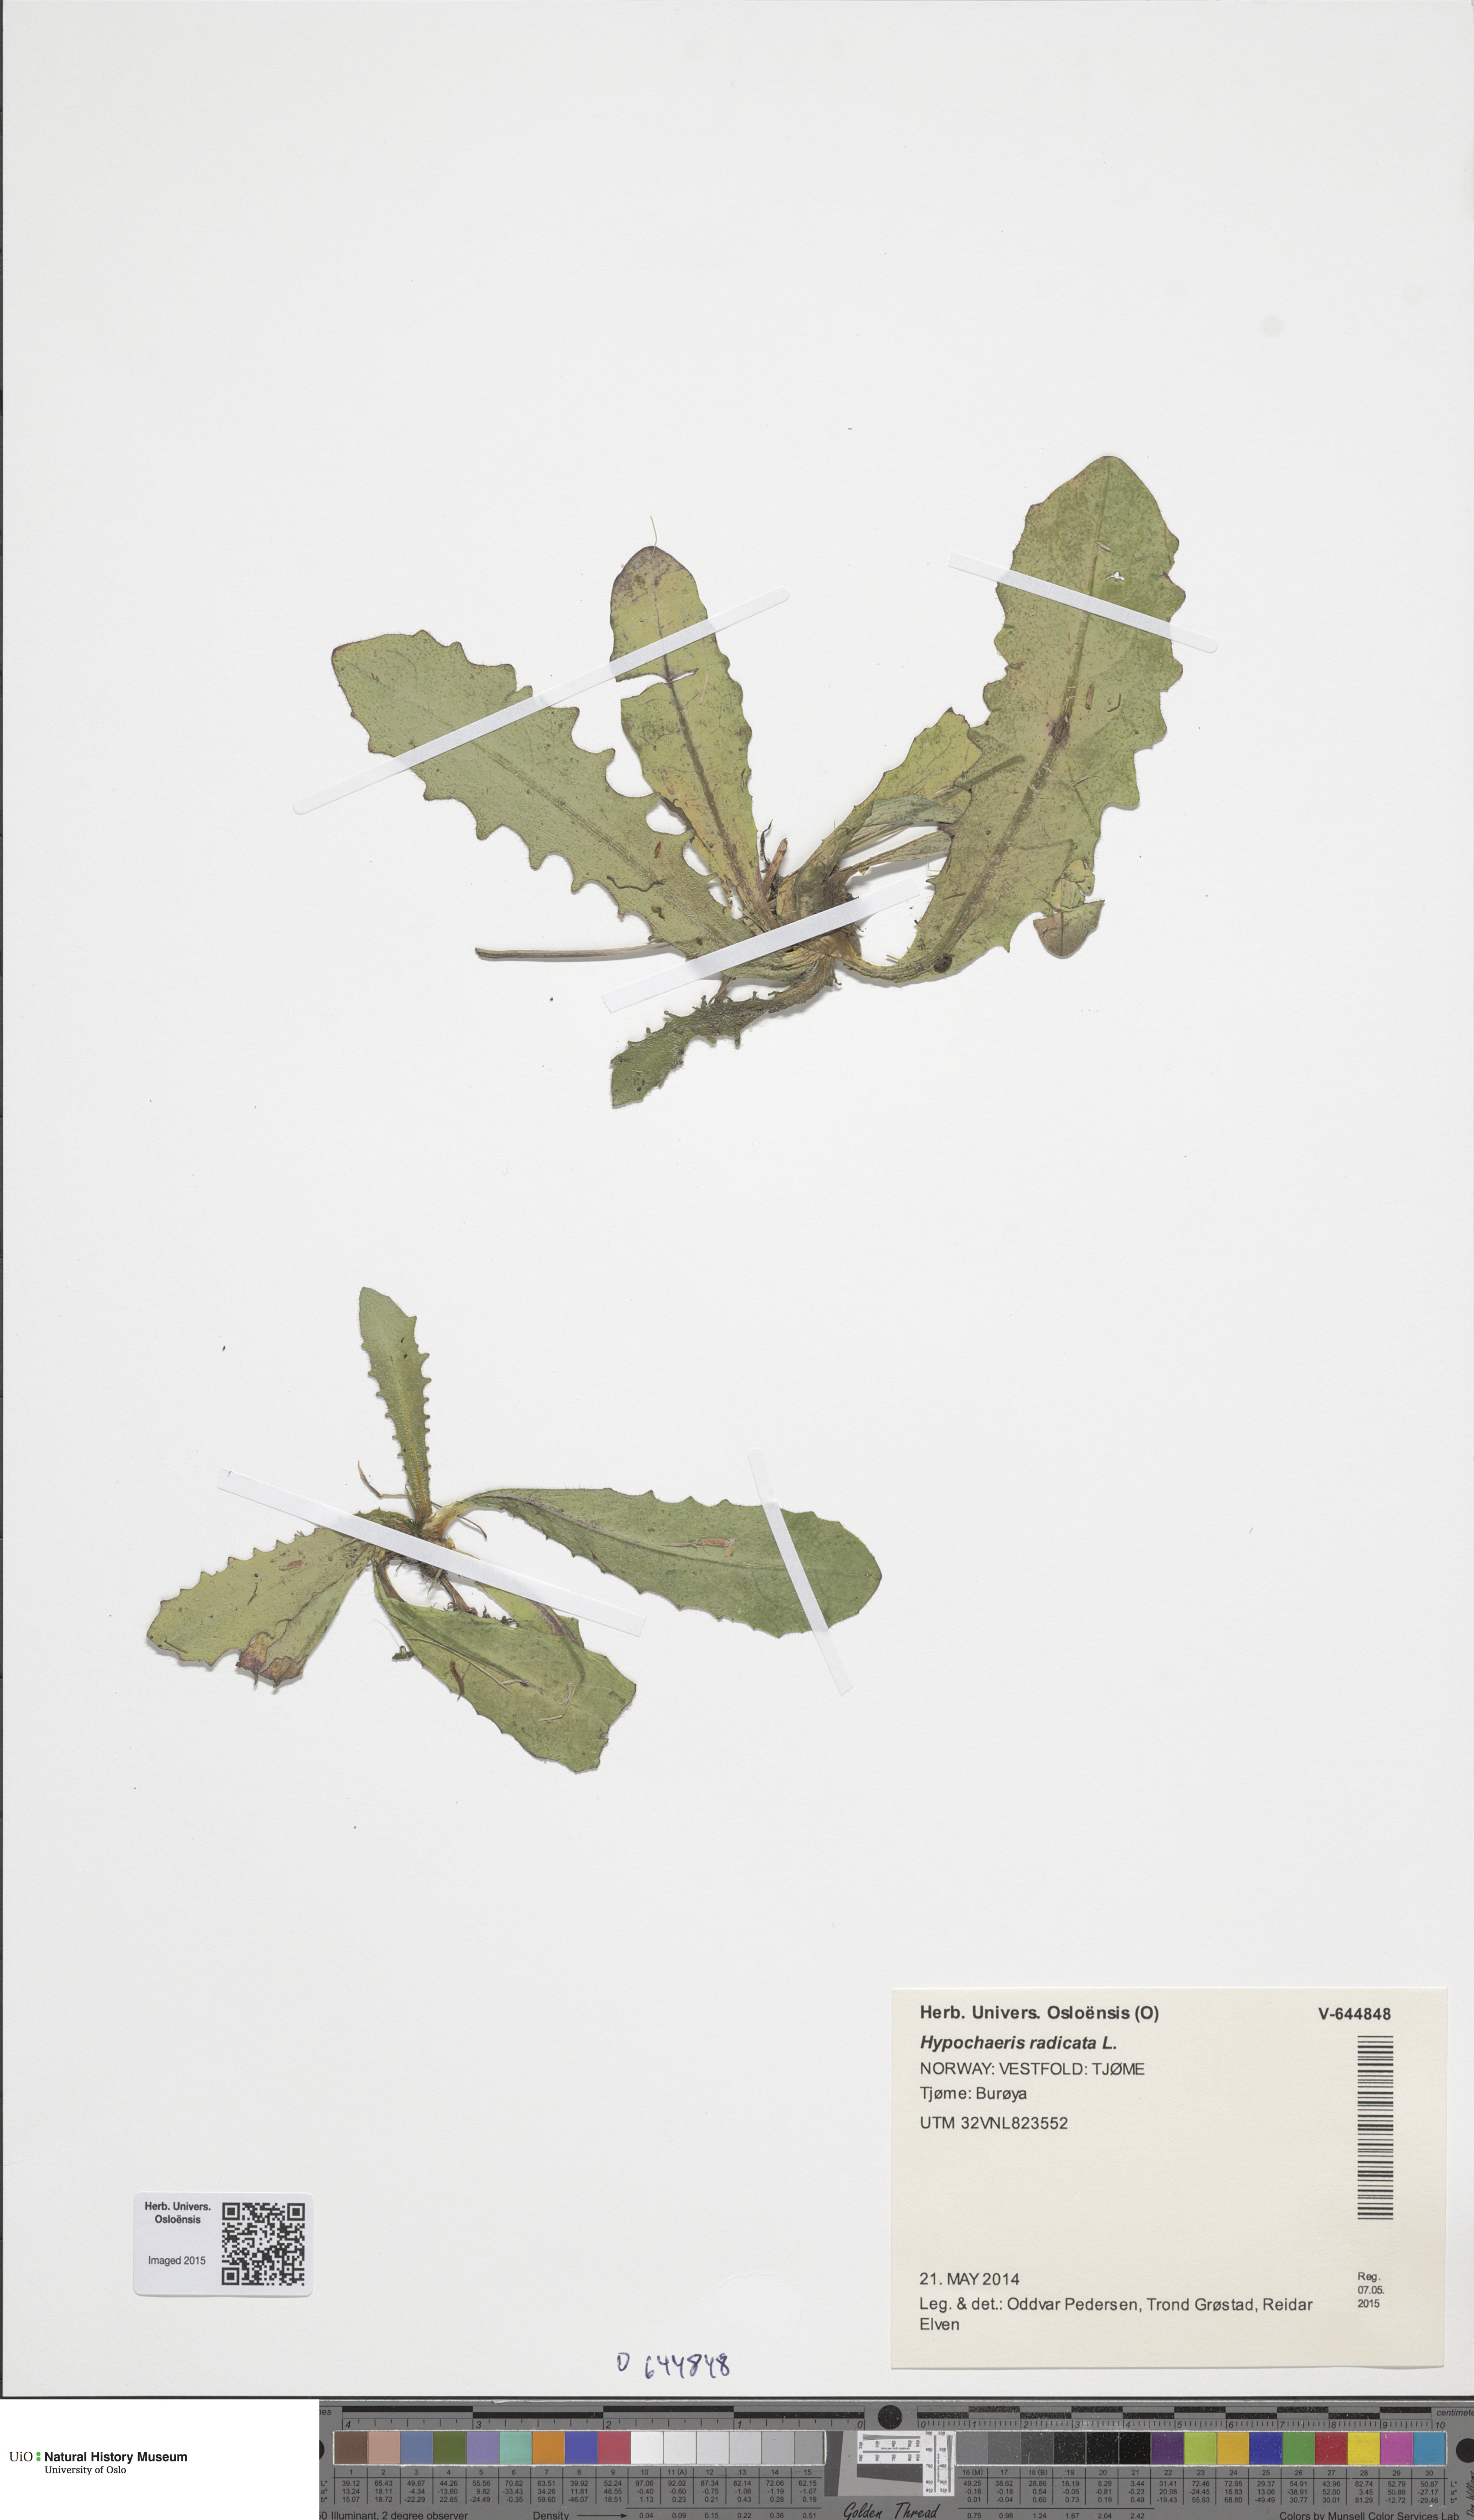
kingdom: Plantae
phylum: Tracheophyta
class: Magnoliopsida
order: Asterales
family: Asteraceae
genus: Hypochaeris
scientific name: Hypochaeris radicata
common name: Flatweed
